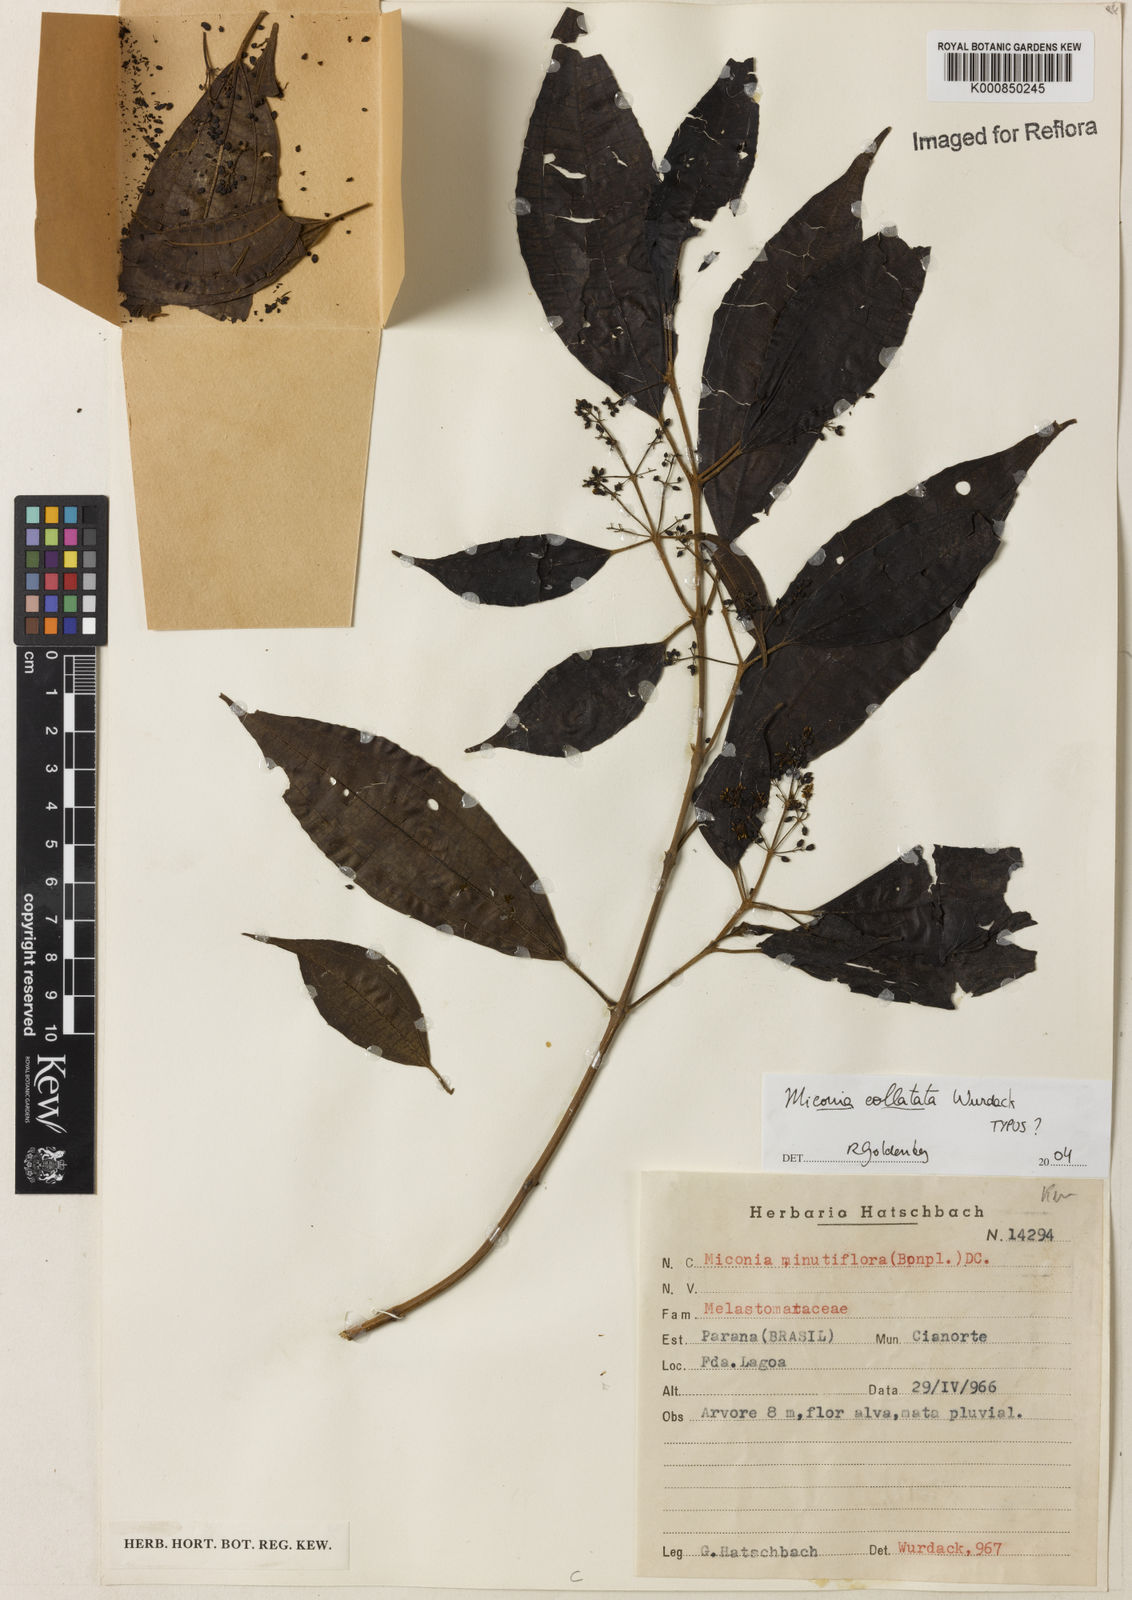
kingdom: Plantae
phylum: Tracheophyta
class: Magnoliopsida
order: Myrtales
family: Melastomataceae
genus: Miconia
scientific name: Miconia collatata
